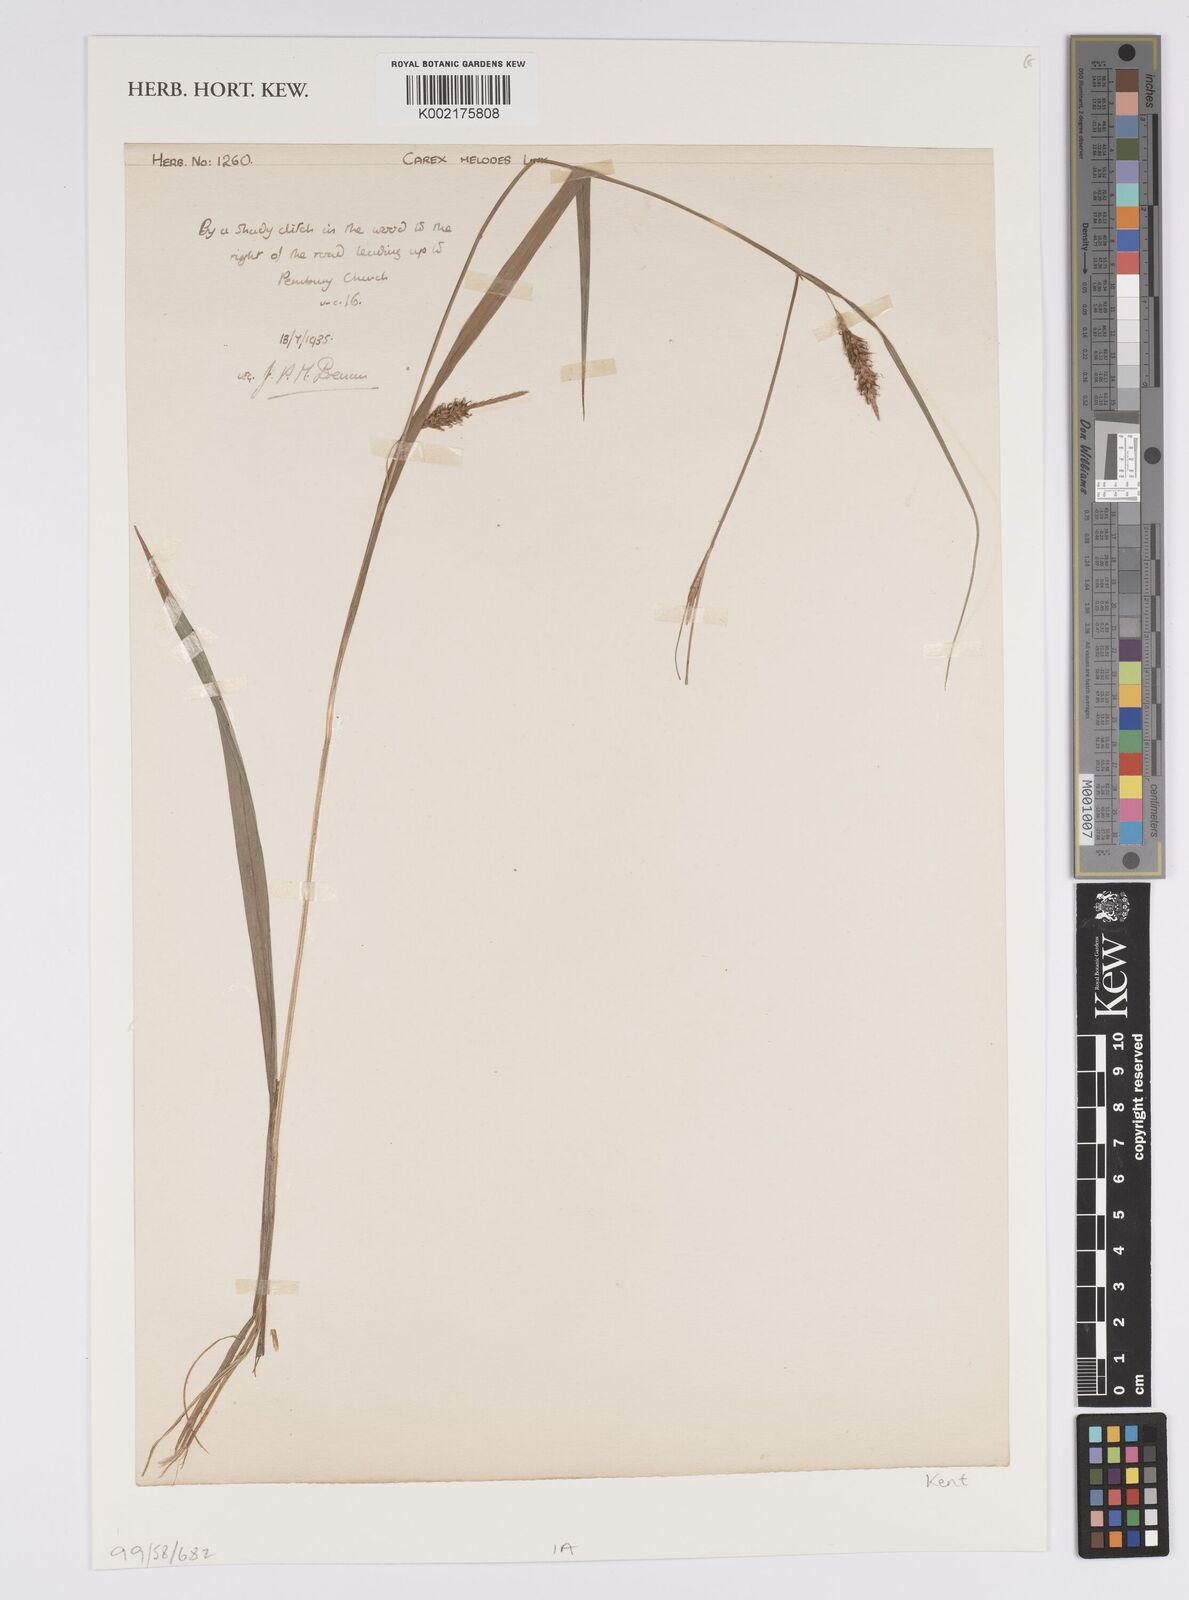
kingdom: Plantae
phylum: Tracheophyta
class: Liliopsida
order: Poales
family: Cyperaceae
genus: Carex
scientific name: Carex laevigata
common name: Smooth-stalked sedge
